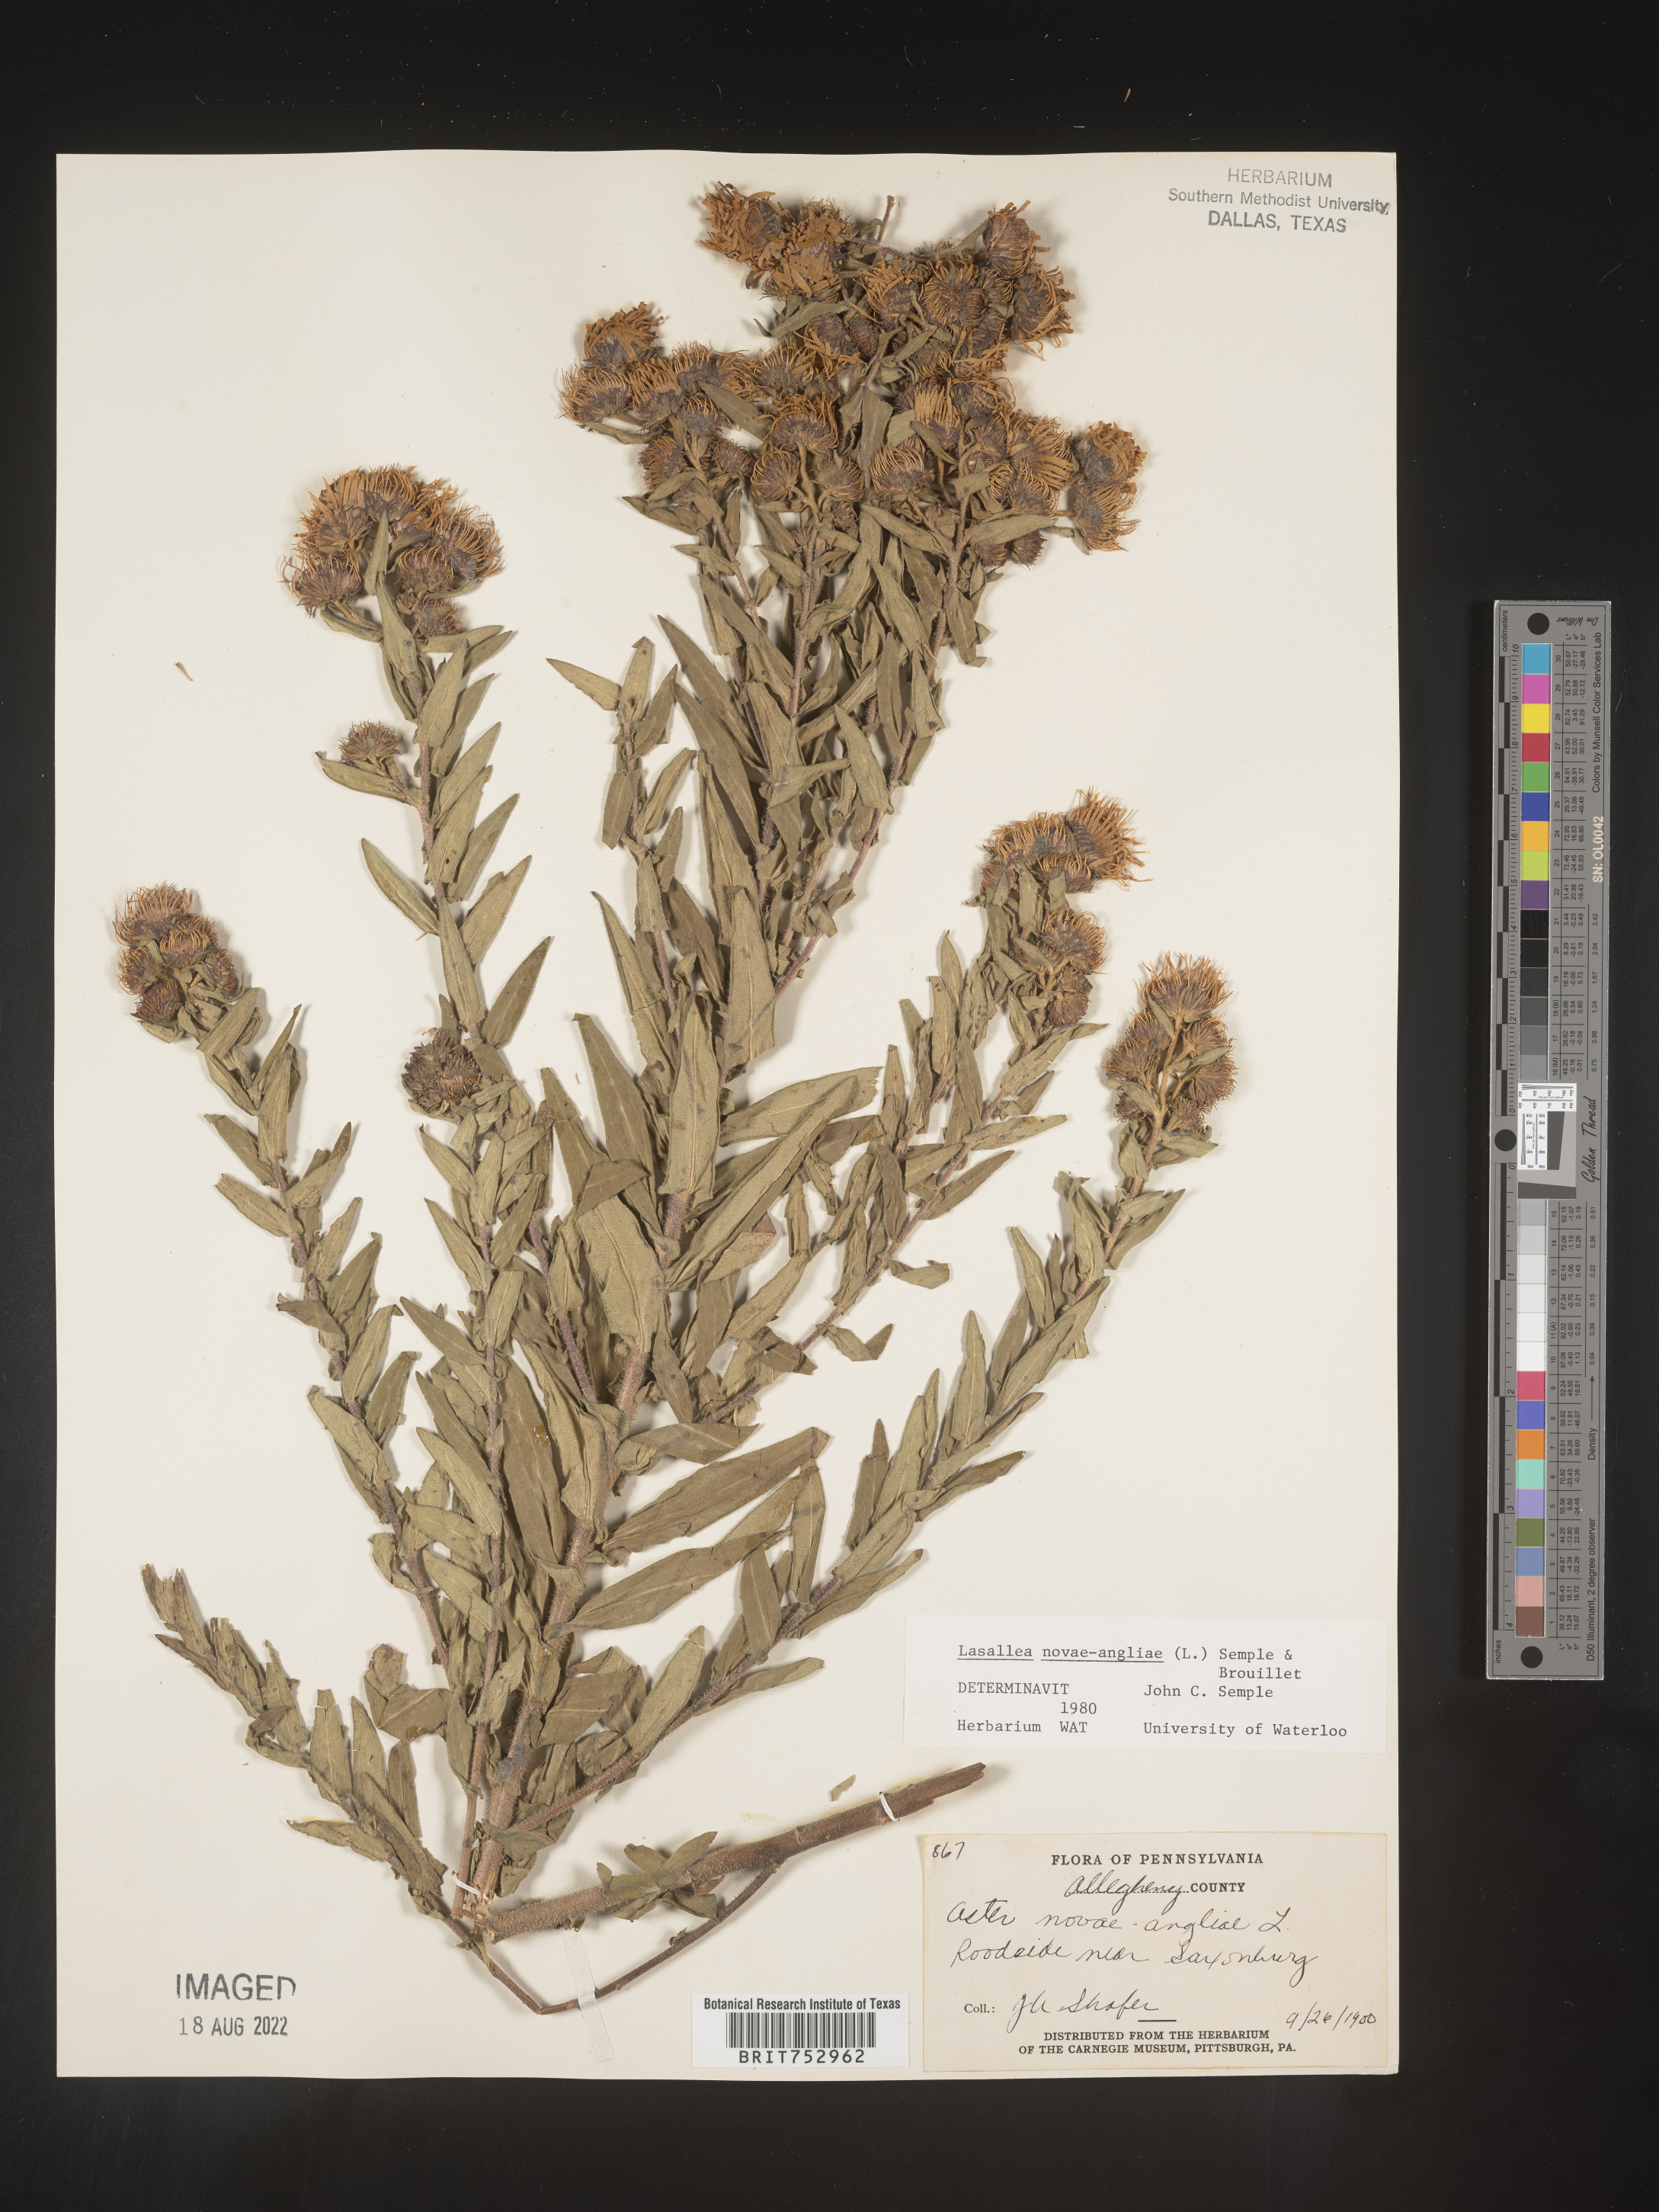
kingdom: Plantae
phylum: Tracheophyta
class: Magnoliopsida
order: Asterales
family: Asteraceae
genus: Symphyotrichum
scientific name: Symphyotrichum novae-angliae
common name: Michaelmas daisy
